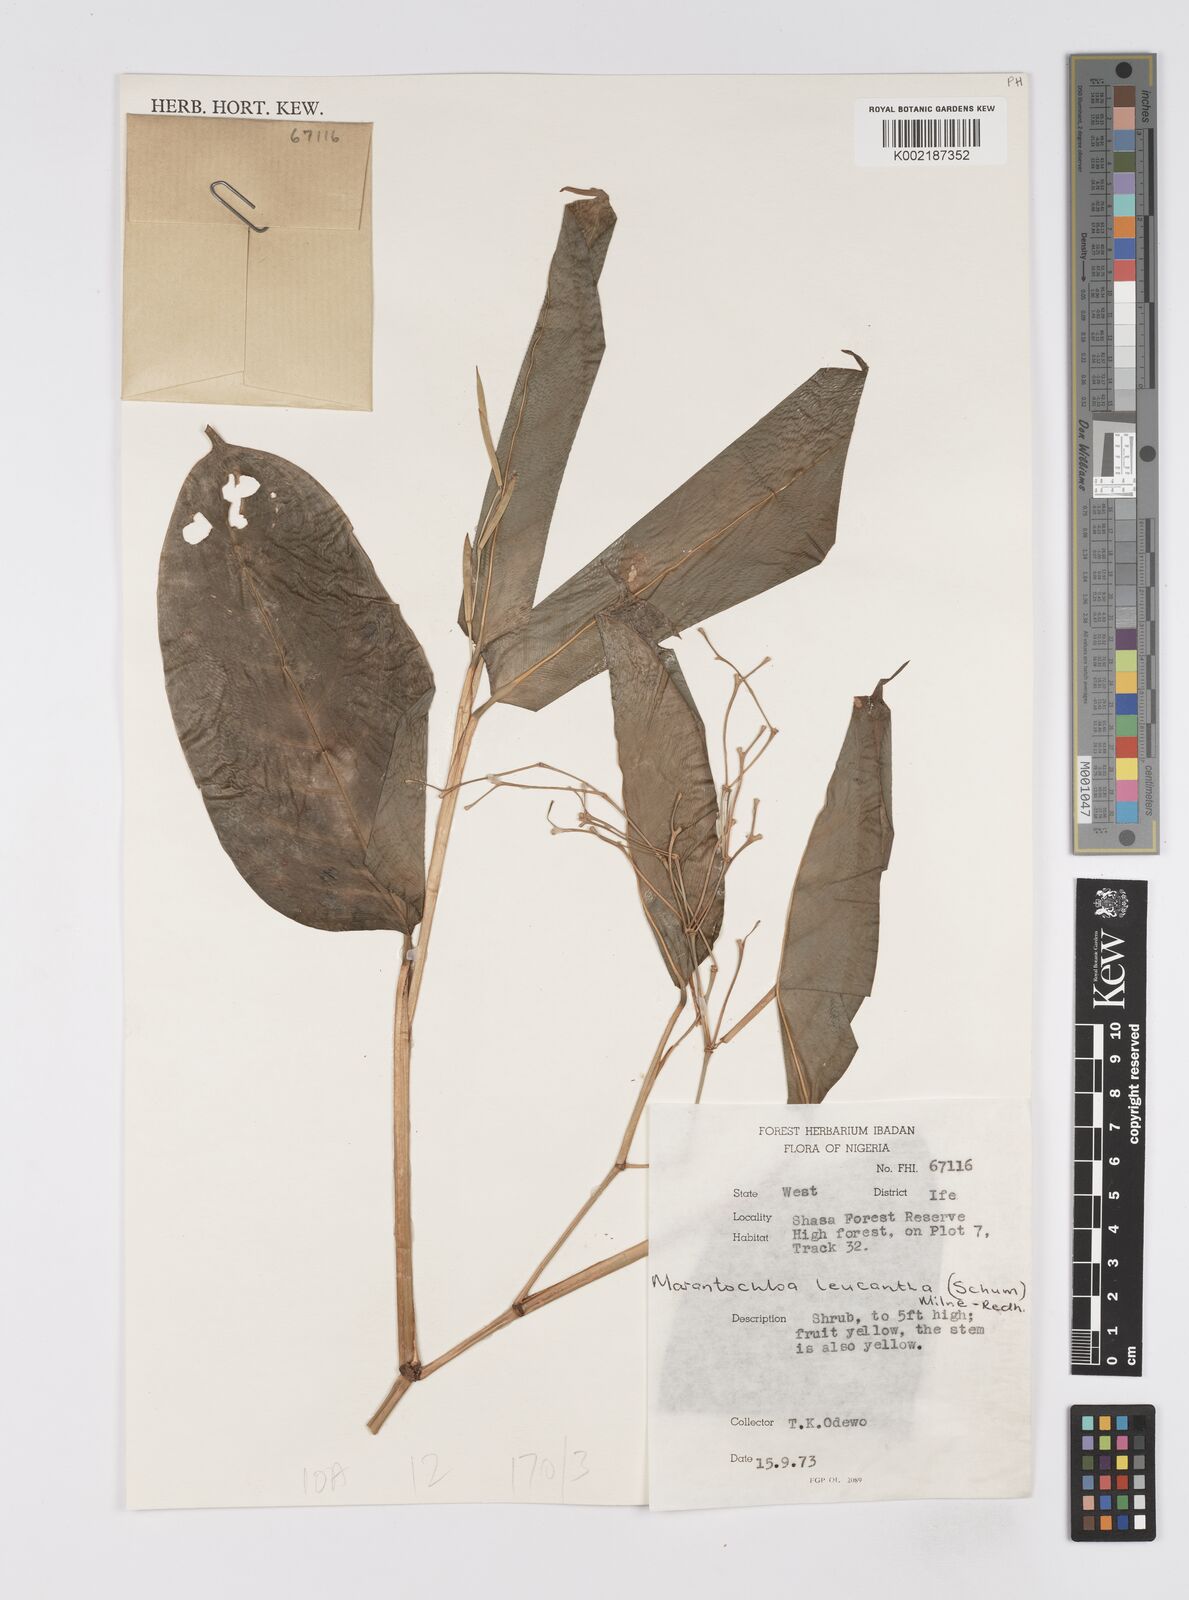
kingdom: Plantae
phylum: Tracheophyta
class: Liliopsida
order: Zingiberales
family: Marantaceae
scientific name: Marantaceae
